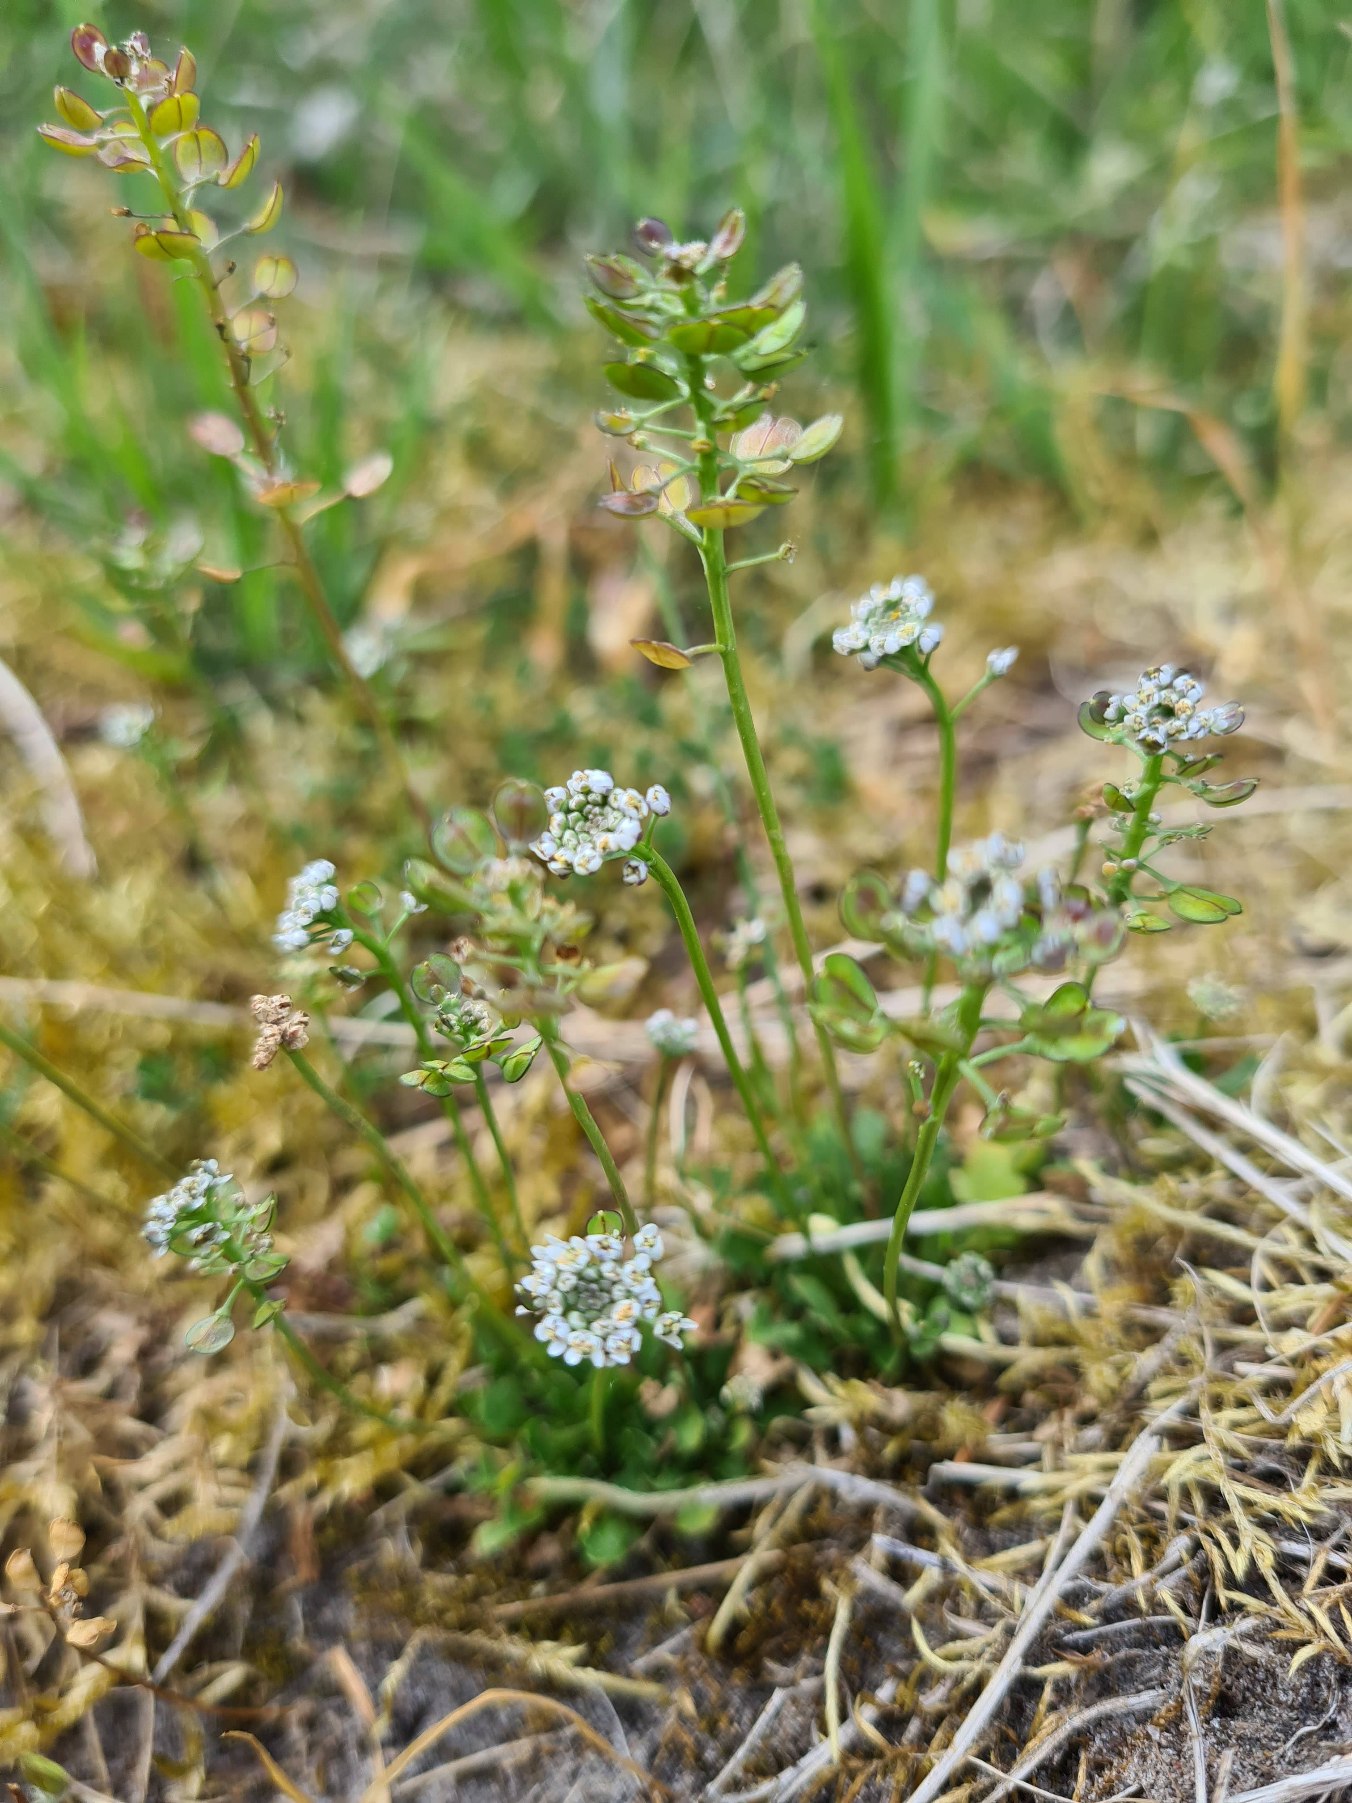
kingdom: Plantae
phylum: Tracheophyta
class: Magnoliopsida
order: Brassicales
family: Brassicaceae
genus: Teesdalia
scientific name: Teesdalia nudicaulis
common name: Flipkrave
